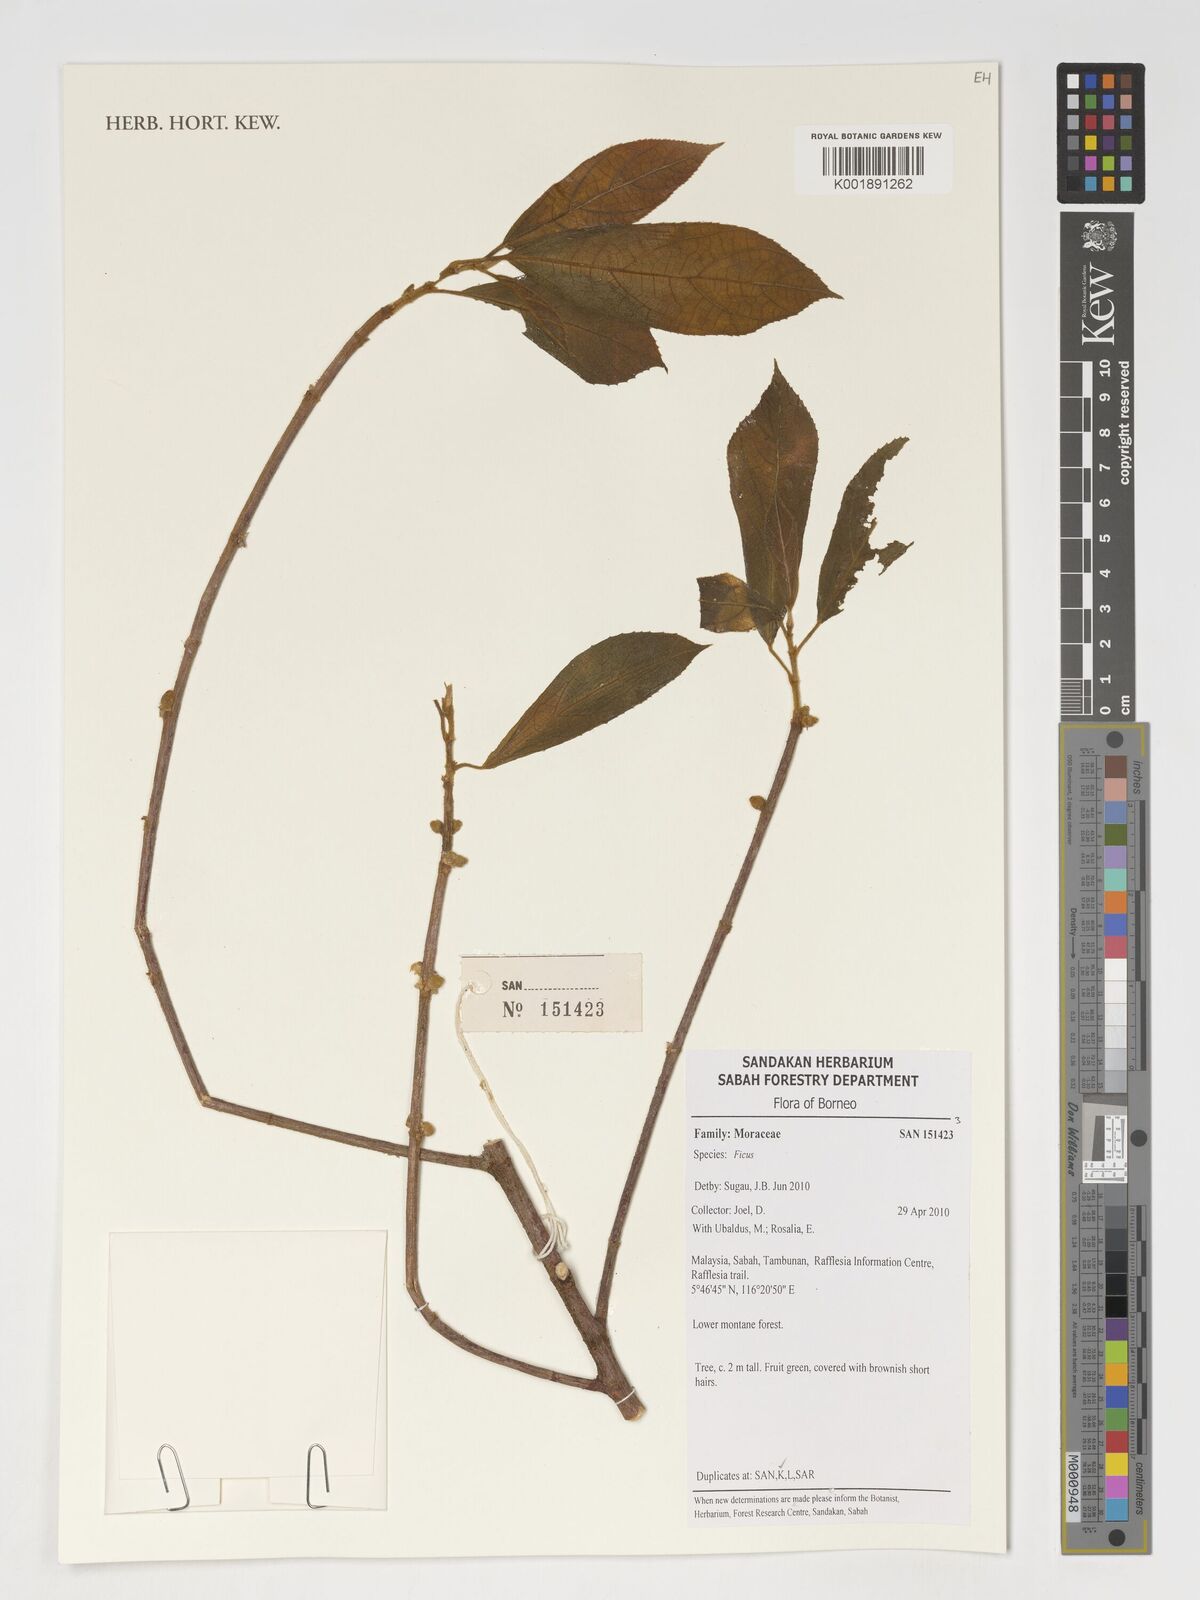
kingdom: Plantae
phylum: Tracheophyta
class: Magnoliopsida
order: Rosales
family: Moraceae
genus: Ficus
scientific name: Ficus
